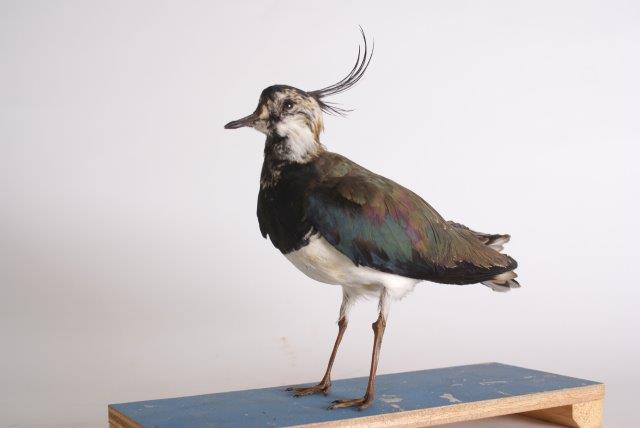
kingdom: Animalia
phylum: Chordata
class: Aves
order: Charadriiformes
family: Charadriidae
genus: Vanellus
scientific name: Vanellus vanellus
